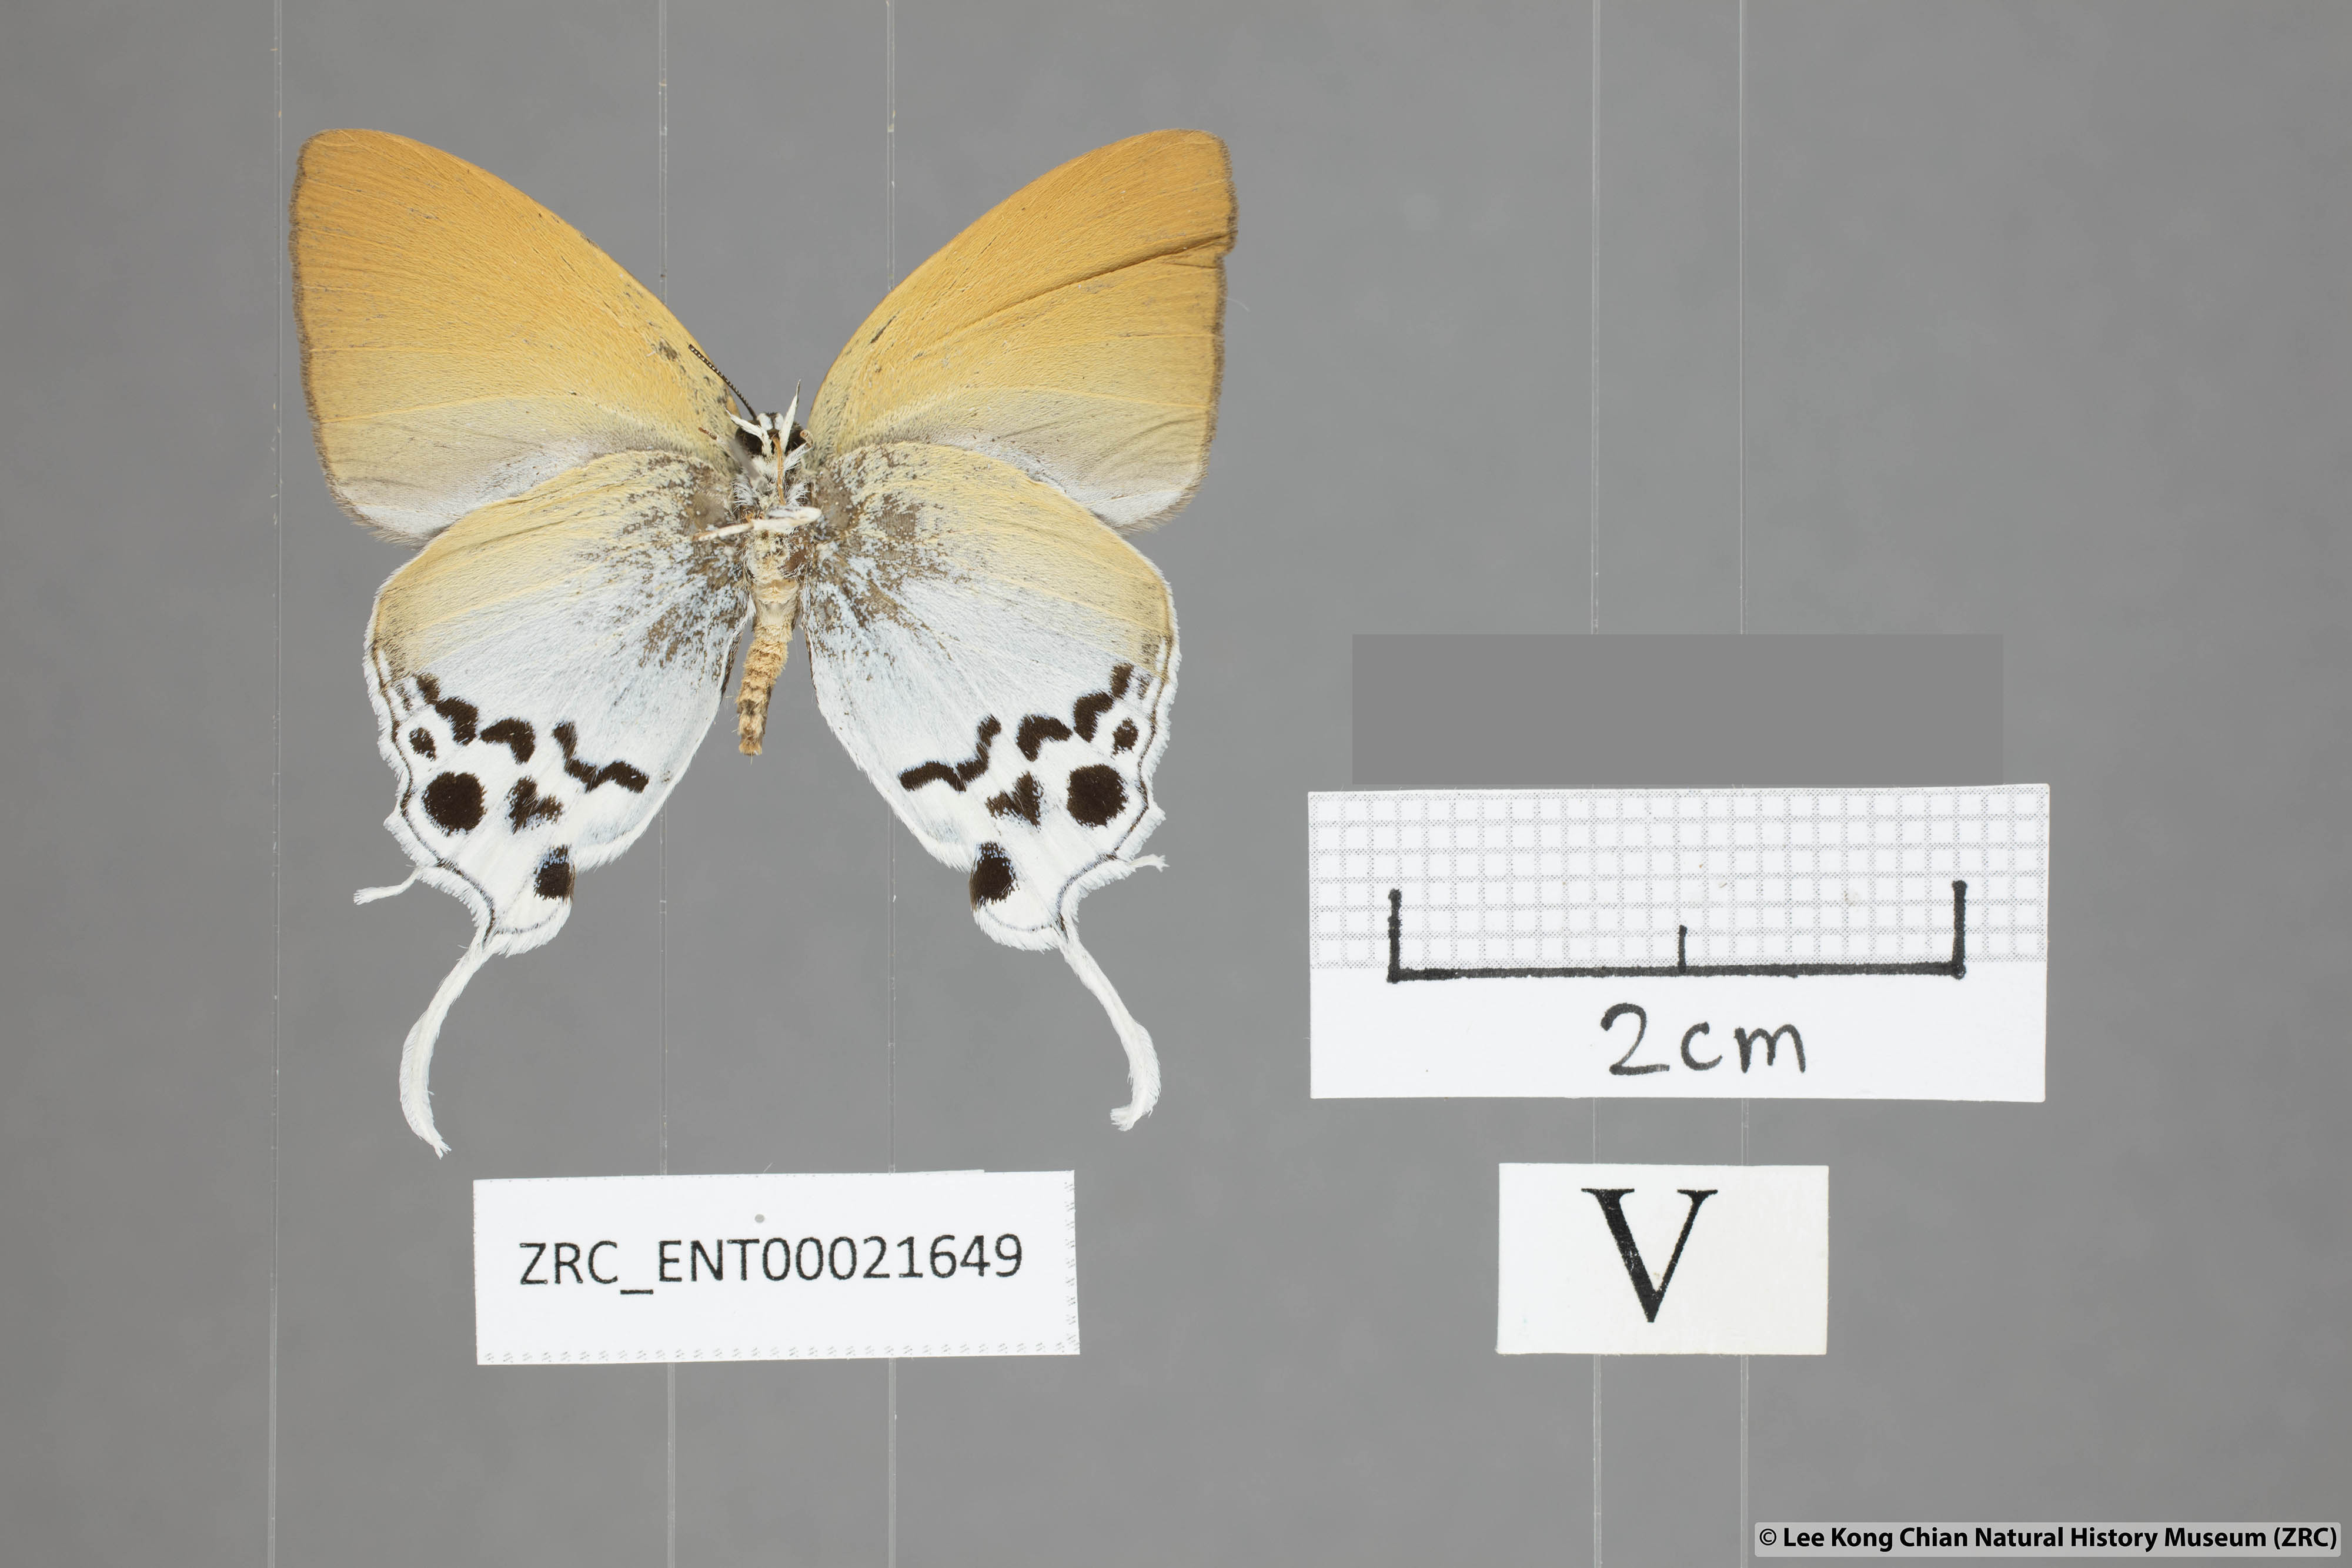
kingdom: Animalia
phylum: Arthropoda
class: Insecta
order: Lepidoptera
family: Lycaenidae
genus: Thrix
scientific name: Thrix
